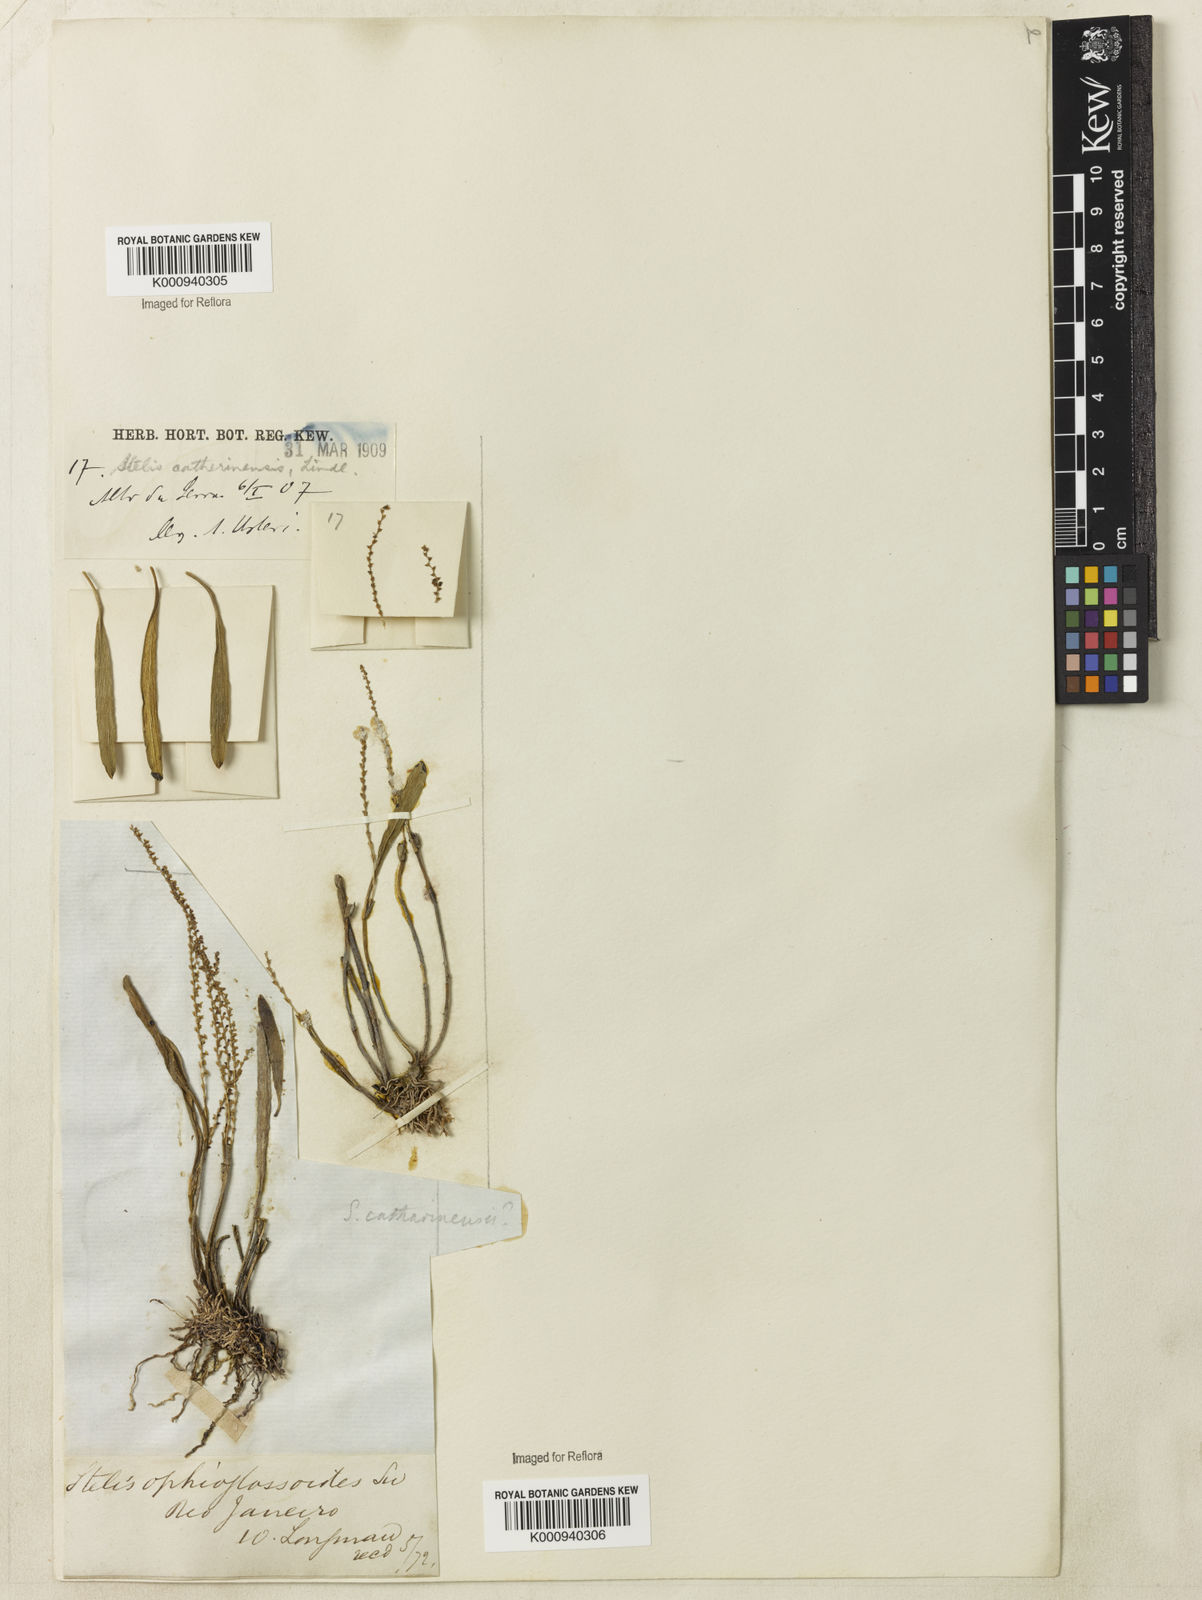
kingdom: Plantae
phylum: Tracheophyta
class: Liliopsida
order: Asparagales
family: Orchidaceae
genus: Stelis
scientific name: Stelis aprica
